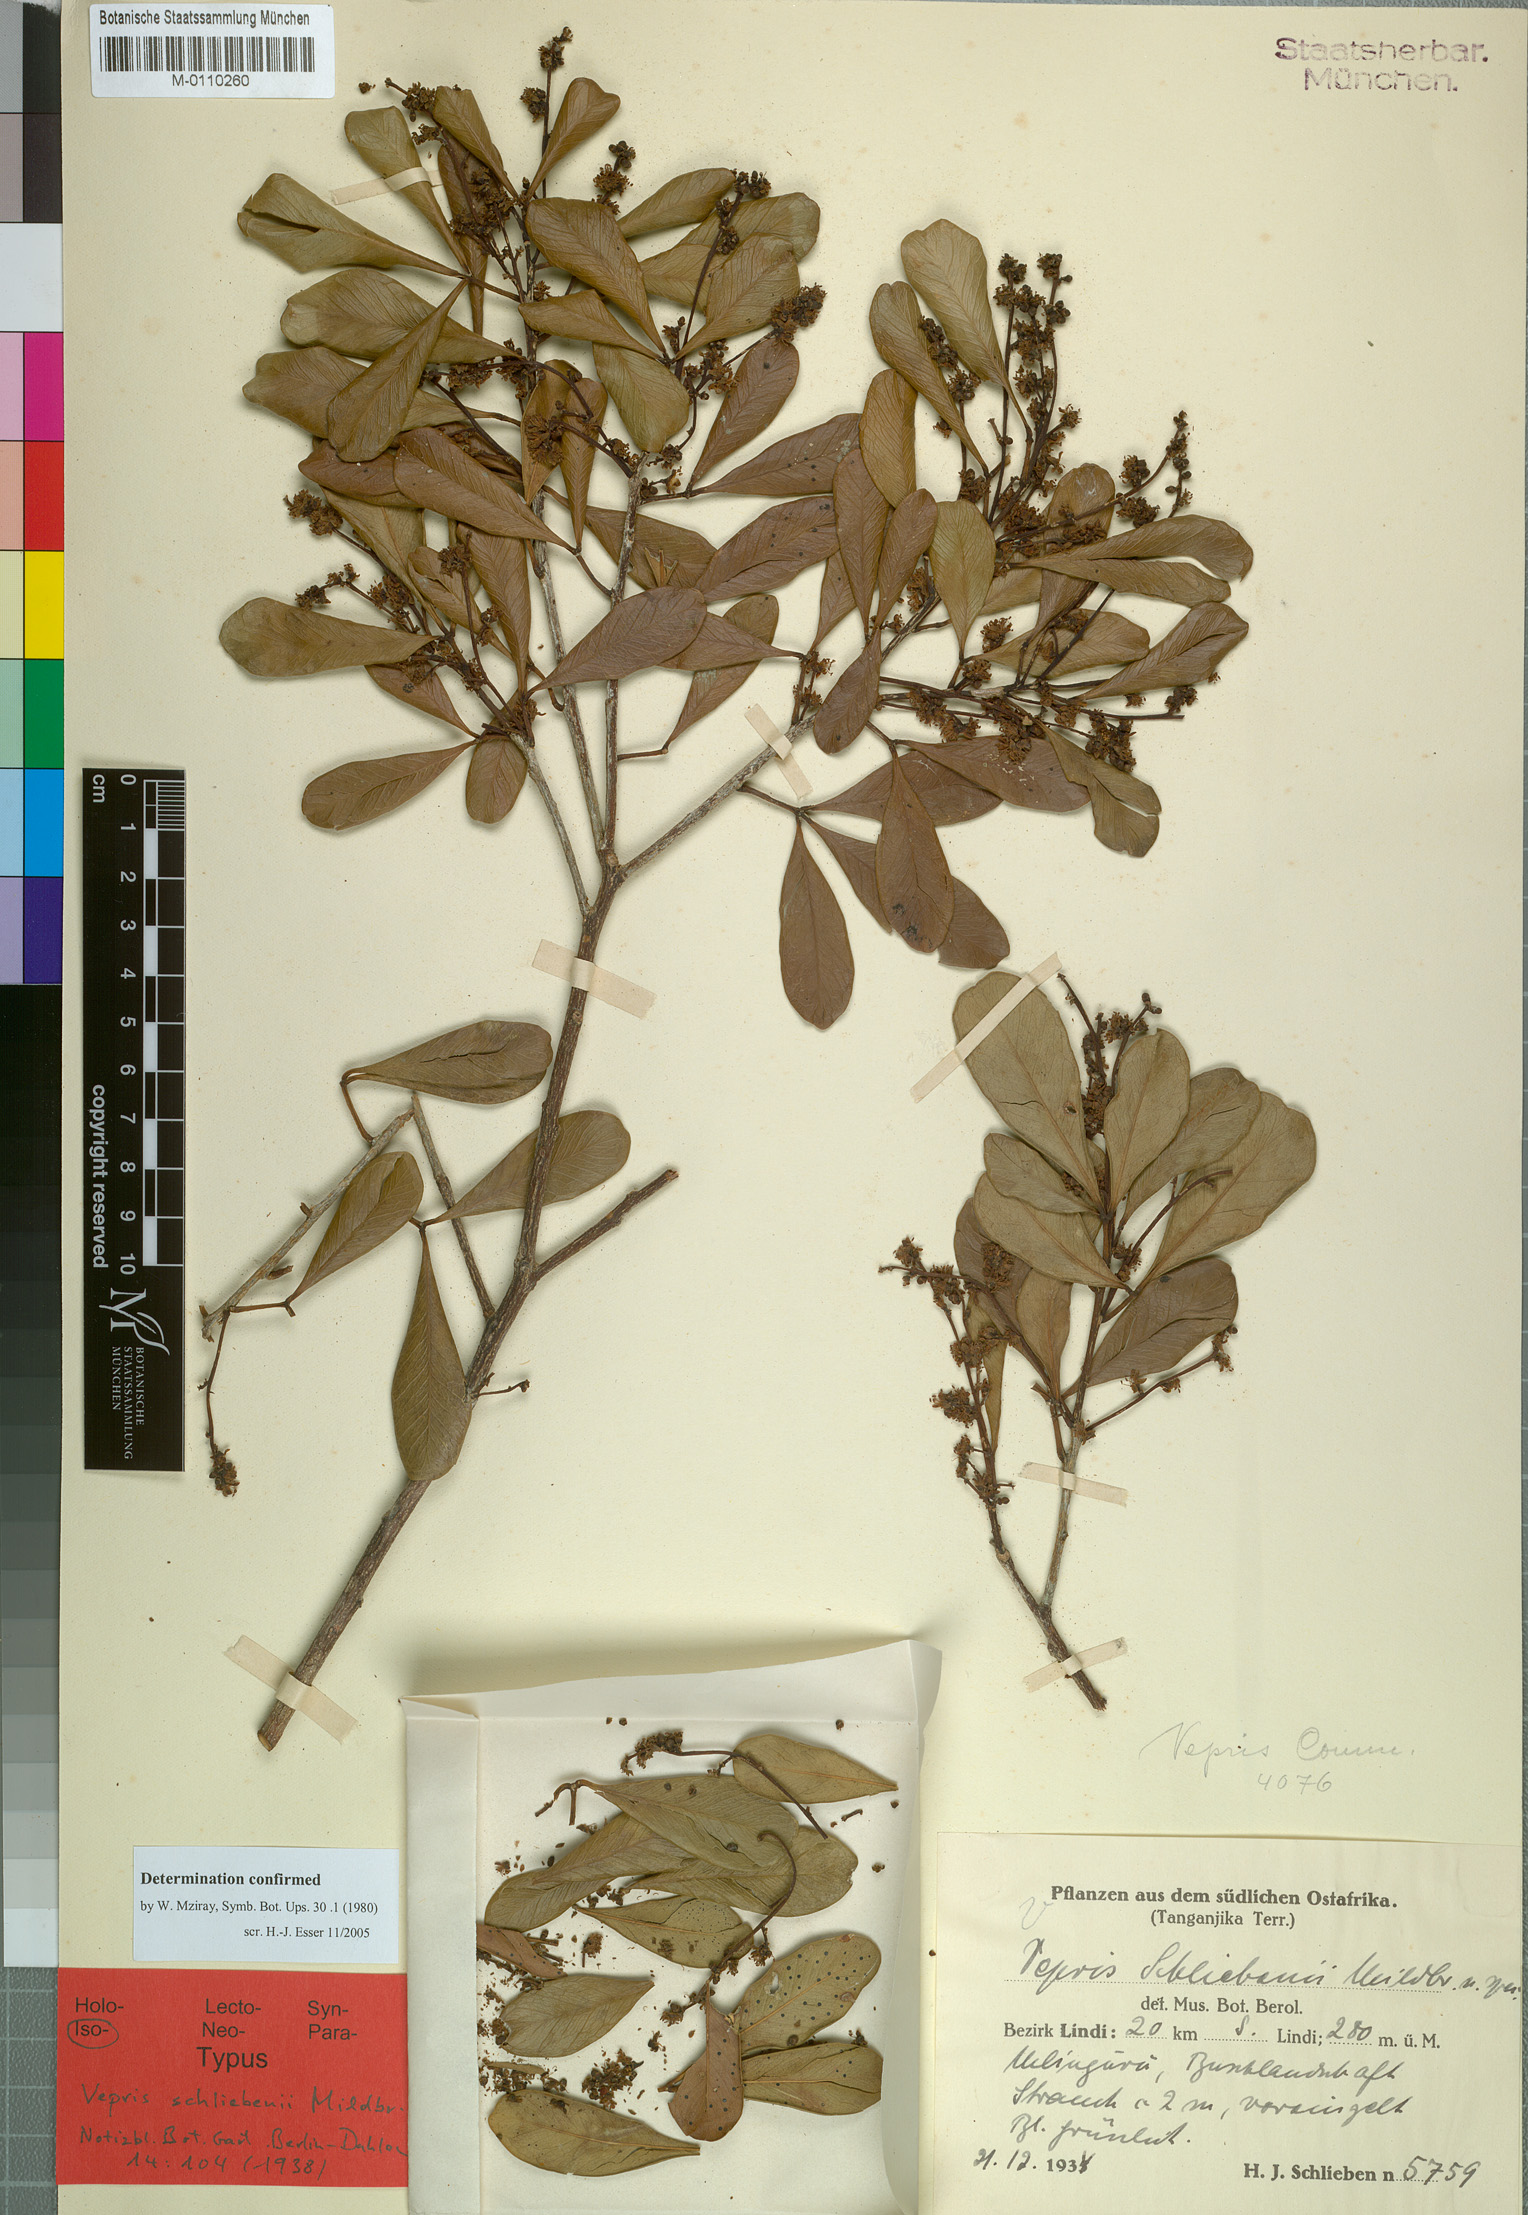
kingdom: Plantae
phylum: Tracheophyta
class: Magnoliopsida
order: Sapindales
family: Rutaceae
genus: Vepris
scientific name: Vepris schliebenii
